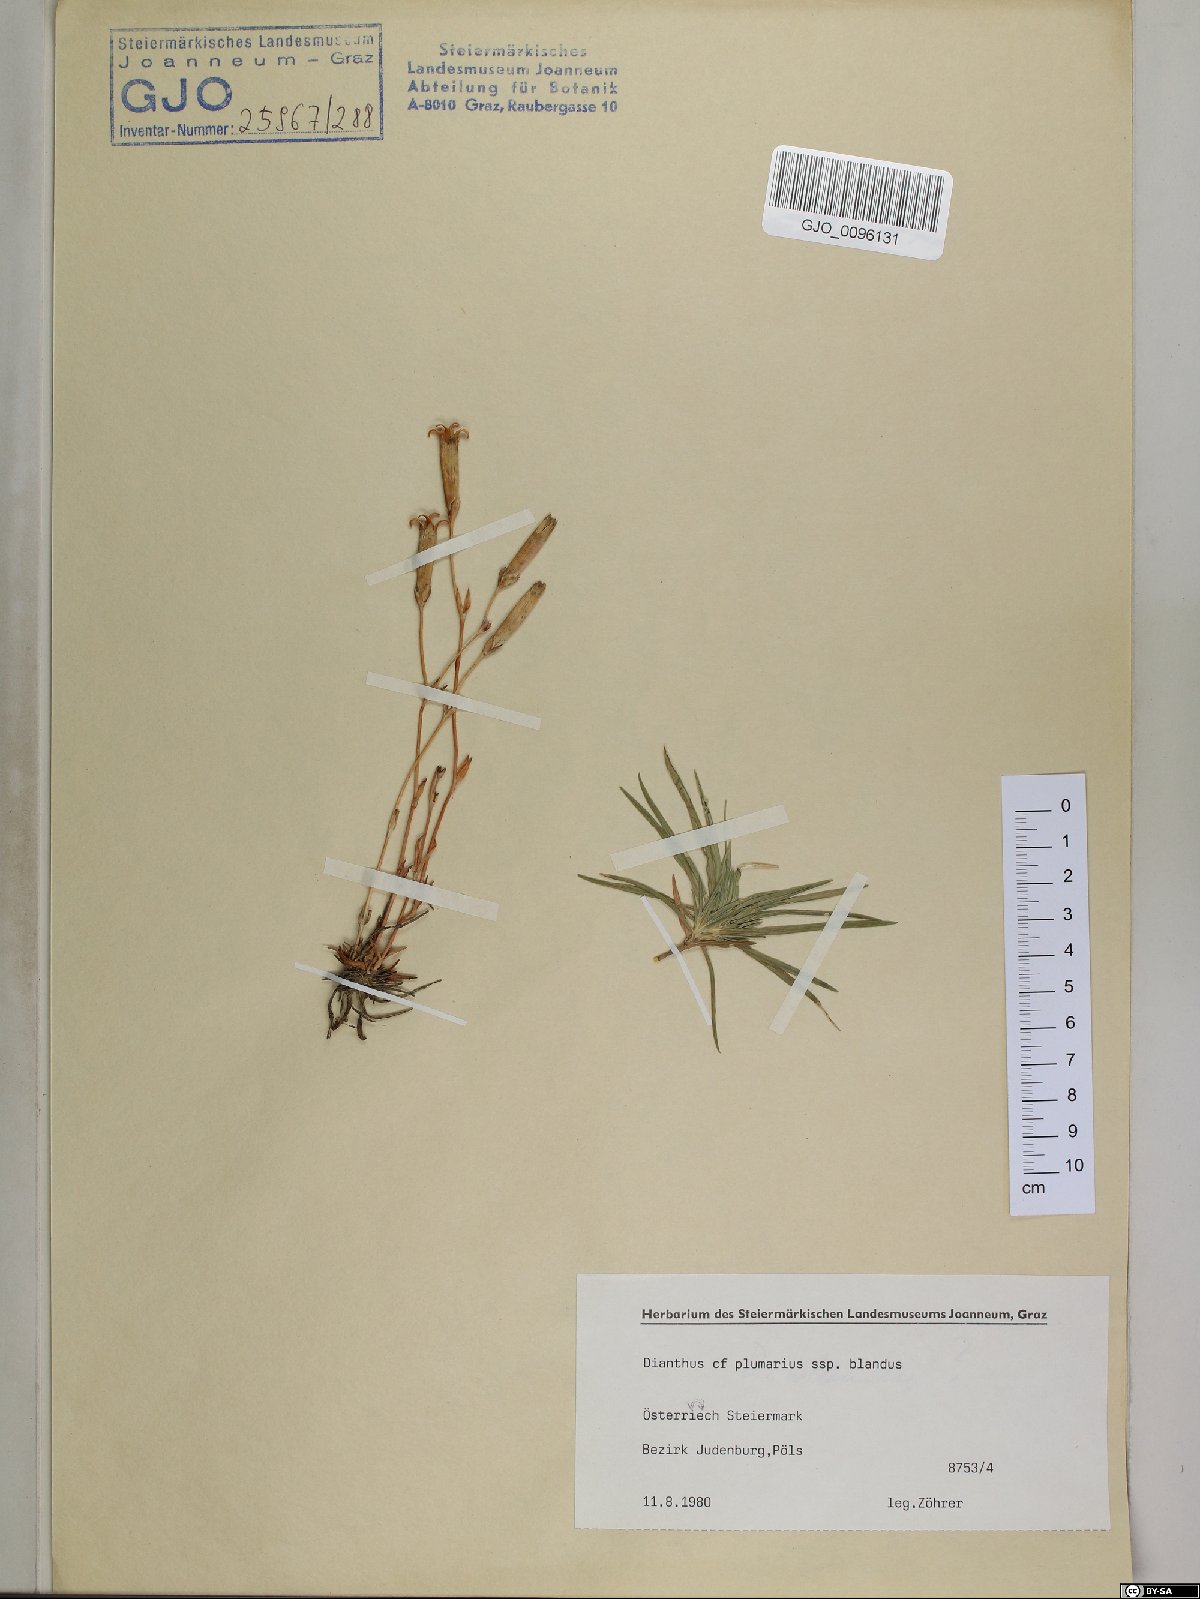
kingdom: Plantae
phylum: Tracheophyta
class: Magnoliopsida
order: Caryophyllales
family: Caryophyllaceae
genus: Dianthus
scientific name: Dianthus plumarius
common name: Pink
